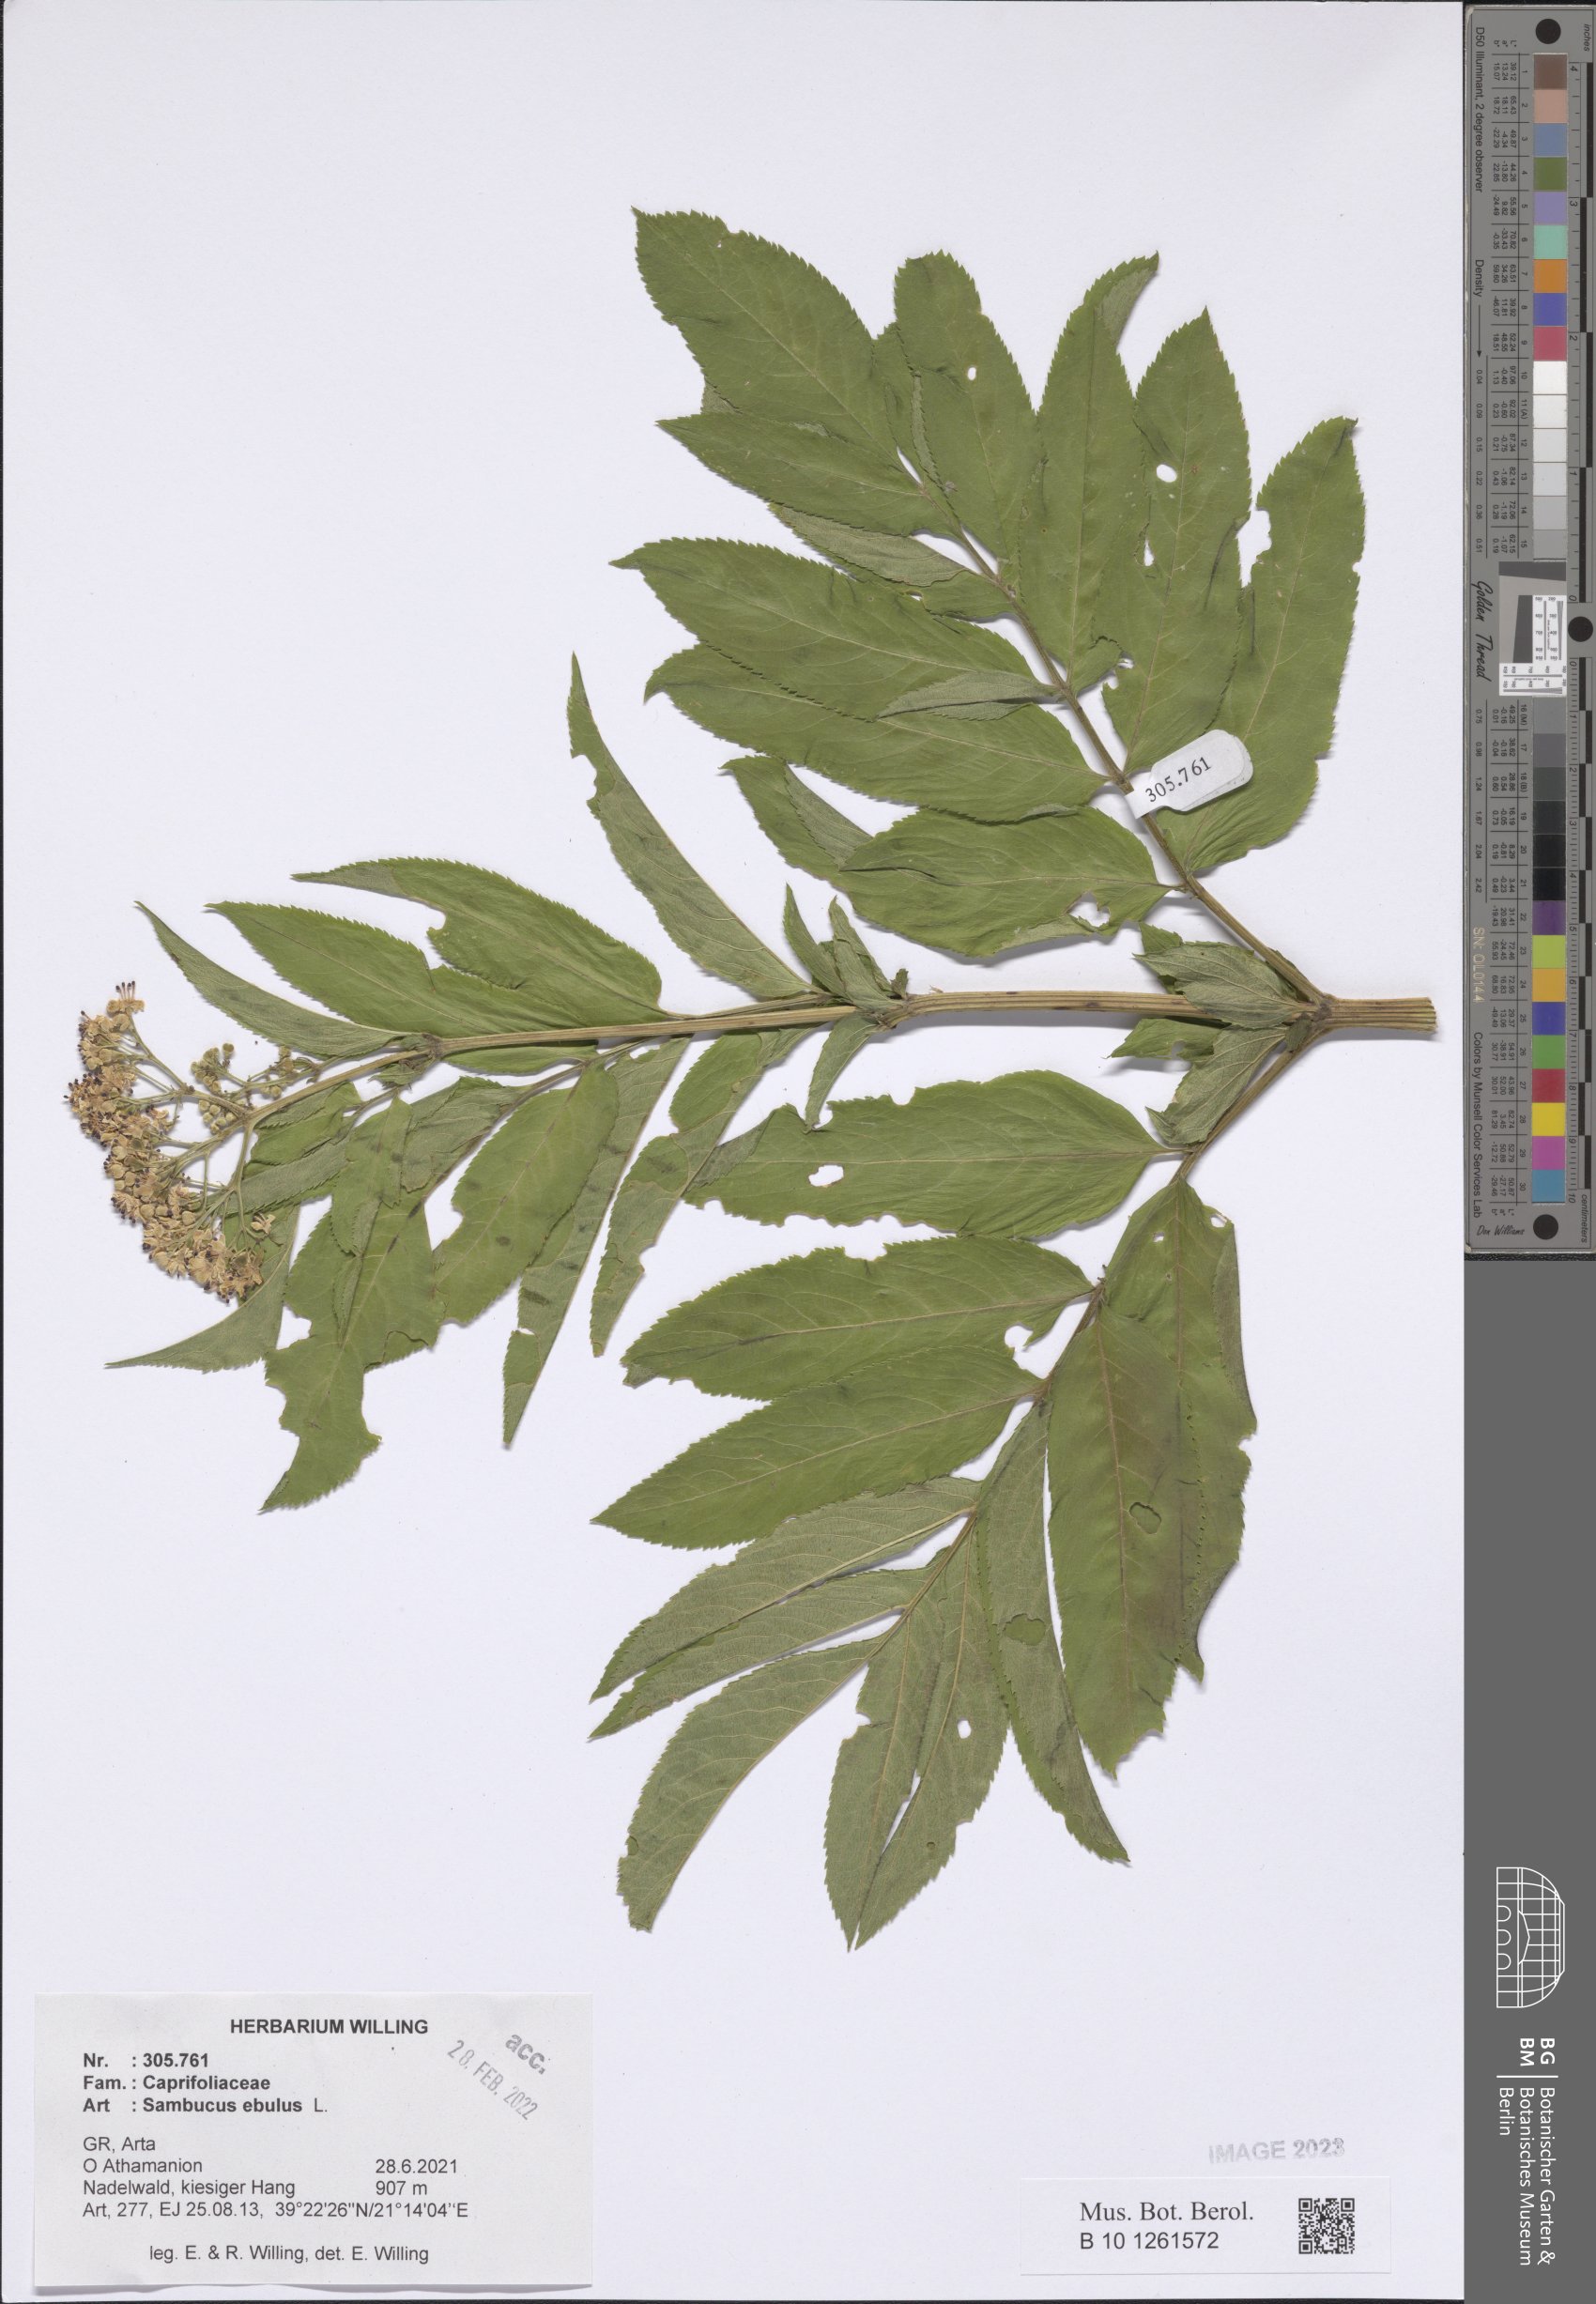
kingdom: Plantae
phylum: Tracheophyta
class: Magnoliopsida
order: Dipsacales
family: Viburnaceae
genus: Sambucus
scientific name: Sambucus ebulus
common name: Dwarf elder
